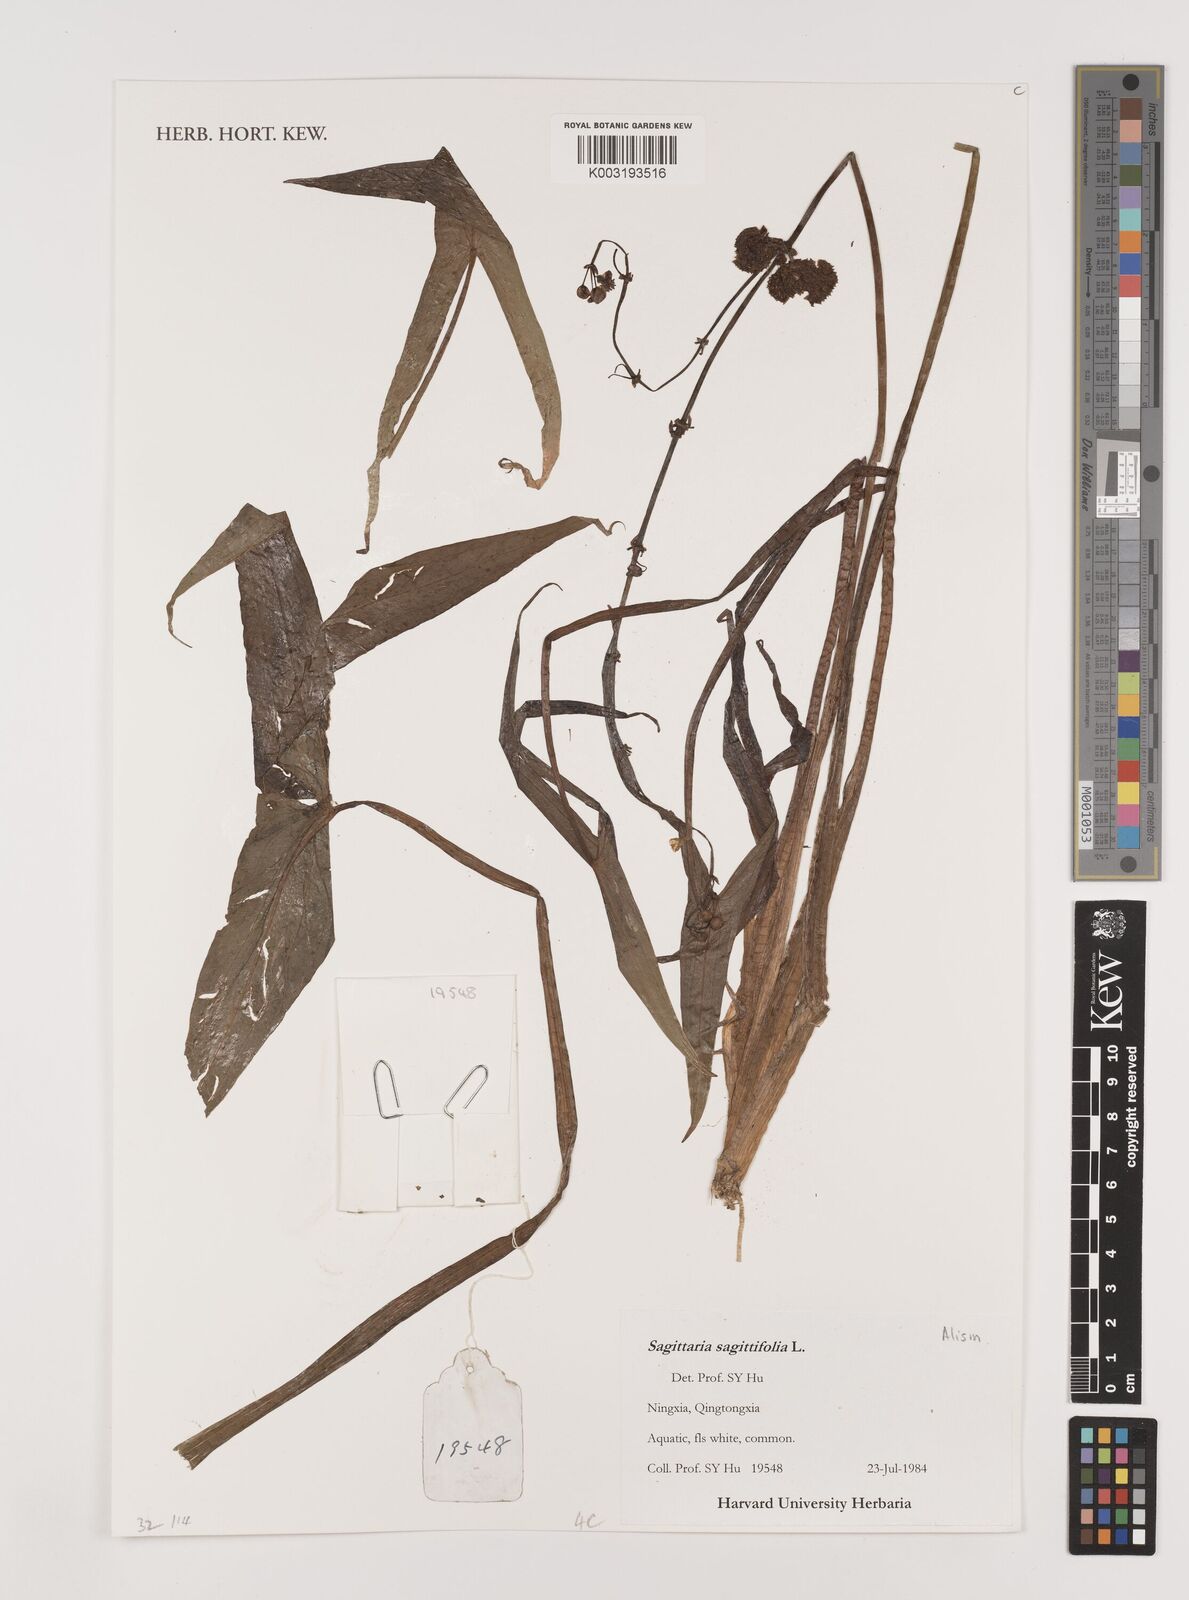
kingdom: Plantae
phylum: Tracheophyta
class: Liliopsida
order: Alismatales
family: Alismataceae
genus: Sagittaria
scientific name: Sagittaria sagittifolia
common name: Arrowhead
